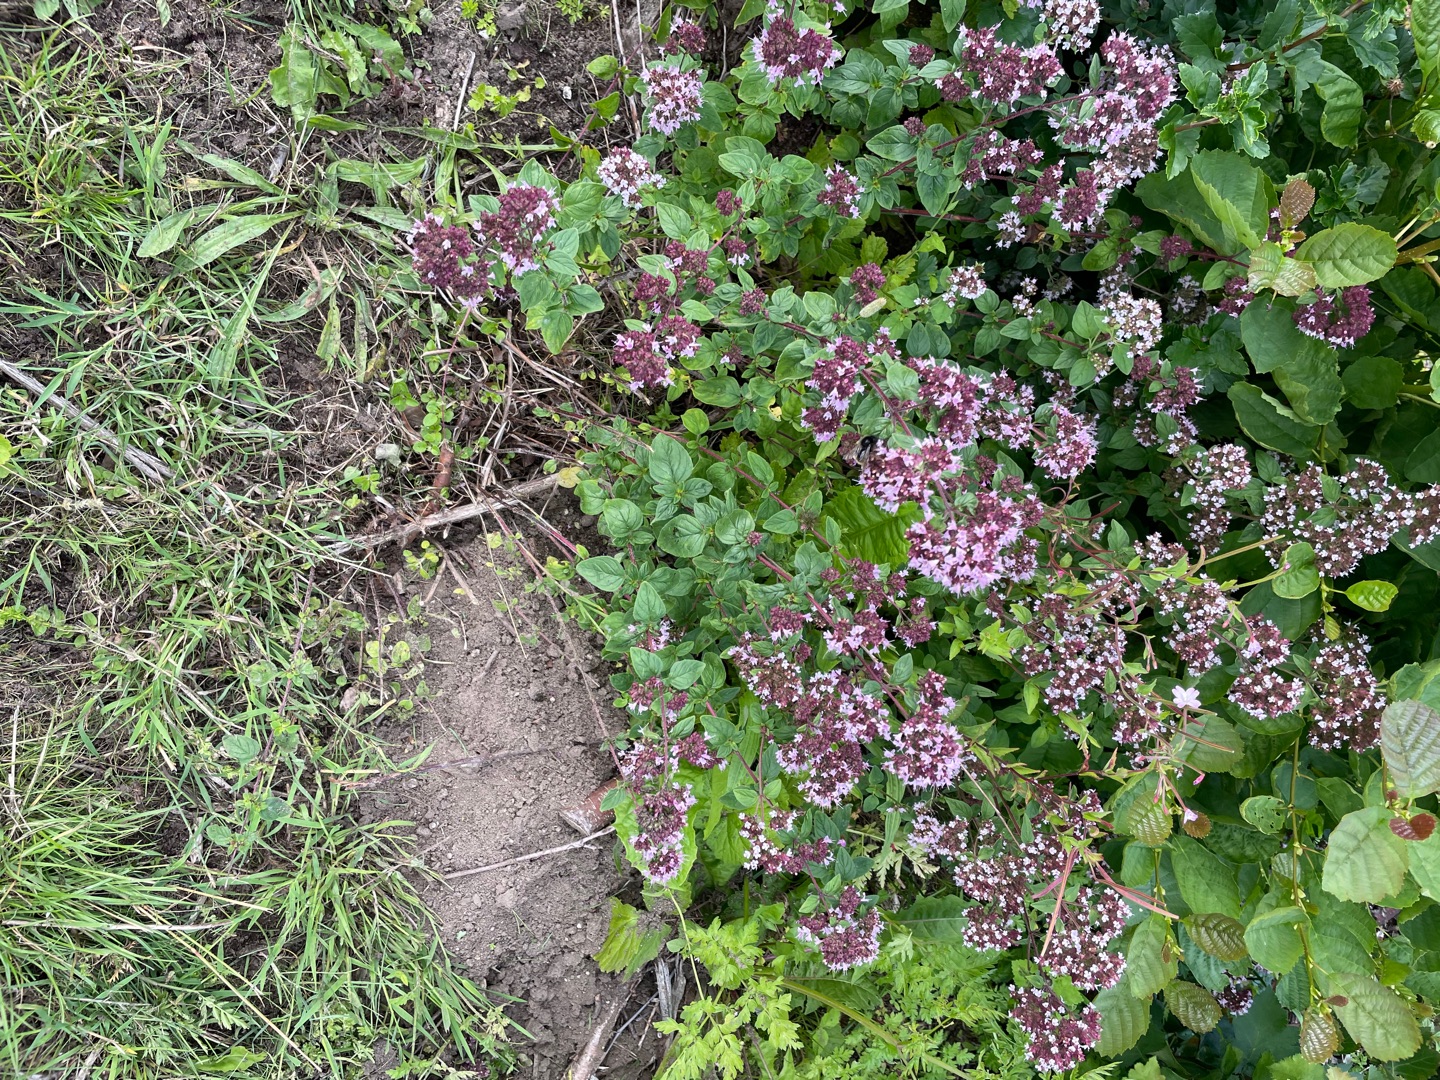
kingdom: Plantae
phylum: Tracheophyta
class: Magnoliopsida
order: Lamiales
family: Lamiaceae
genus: Origanum
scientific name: Origanum vulgare
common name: Merian
